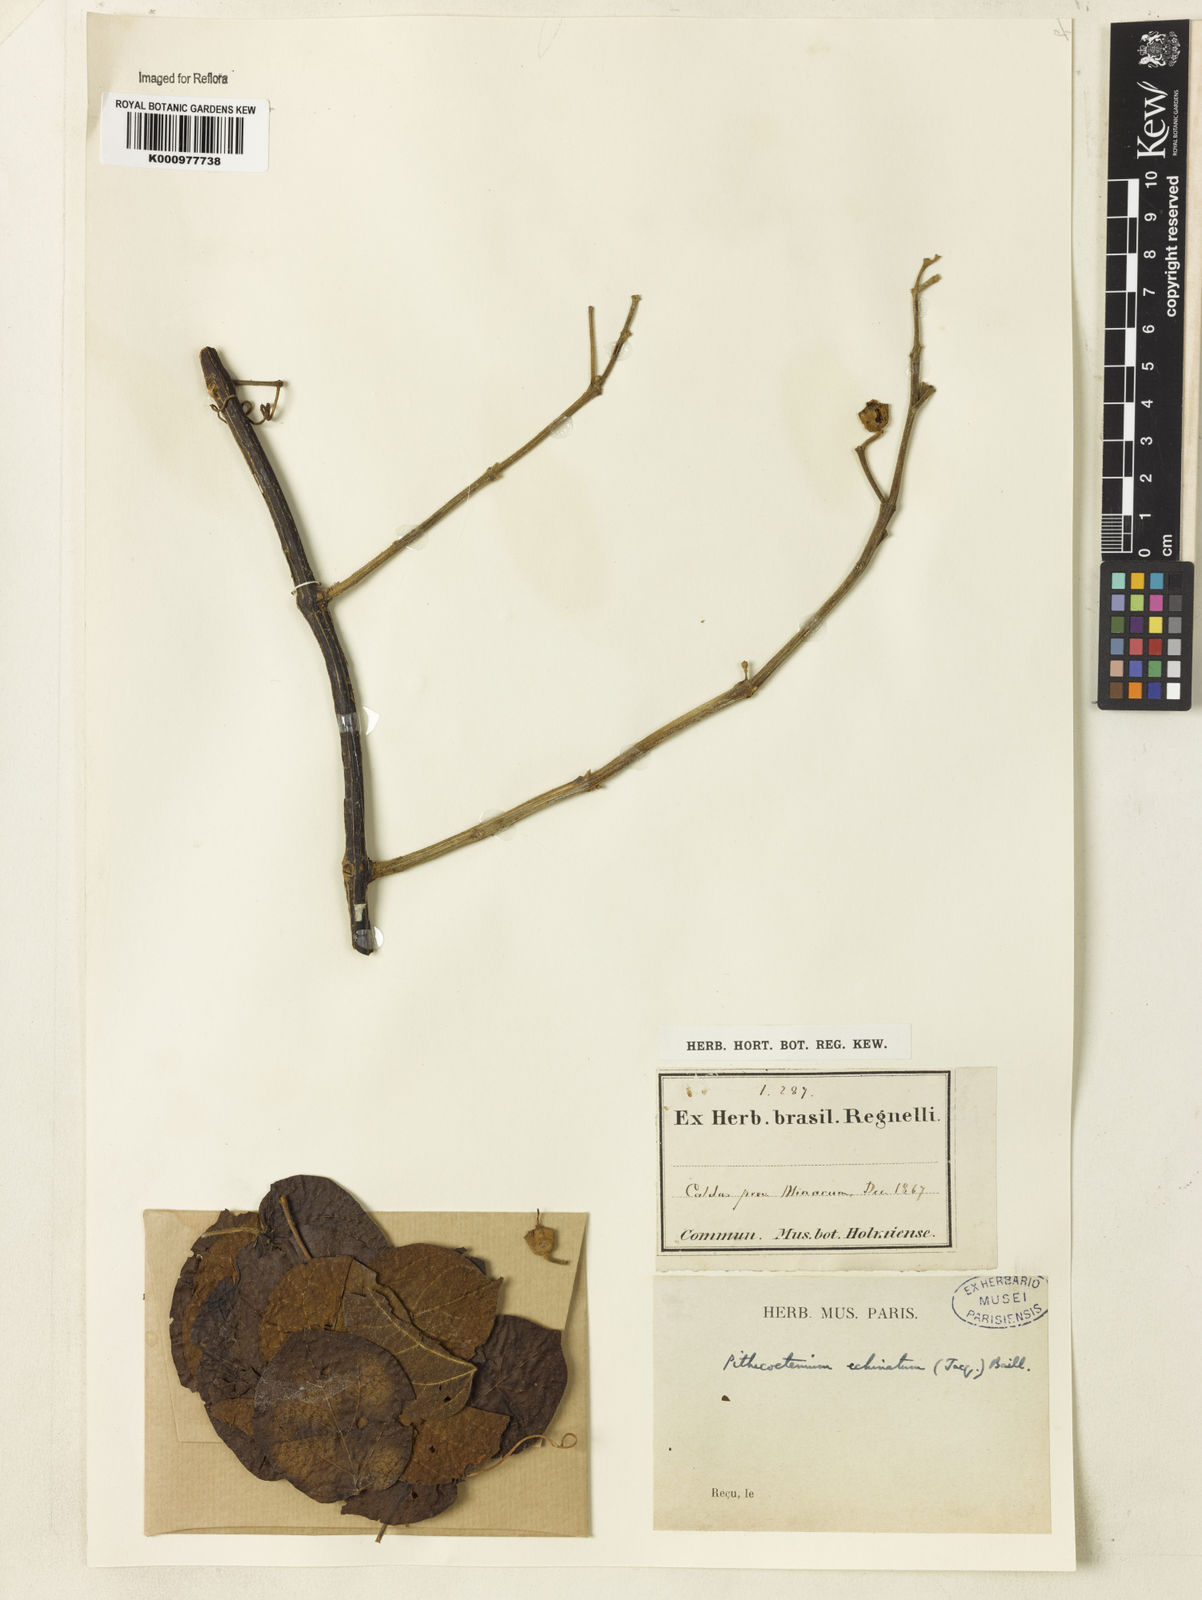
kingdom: Plantae
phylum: Tracheophyta
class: Magnoliopsida
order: Lamiales
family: Bignoniaceae
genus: Amphilophium
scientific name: Amphilophium crucigerum
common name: Monkey comb
